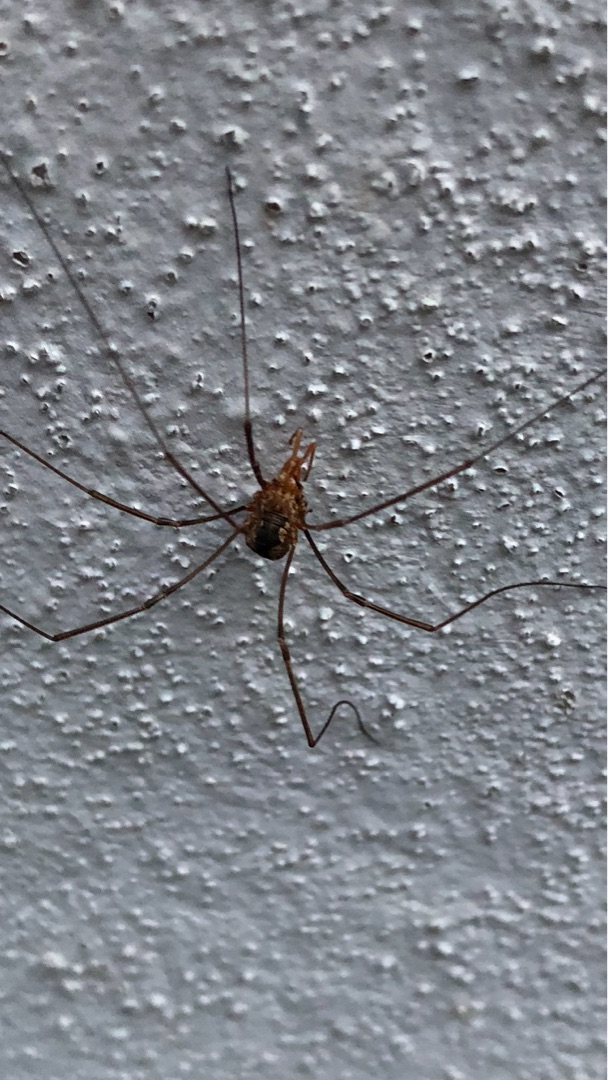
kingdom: Animalia
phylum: Arthropoda
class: Arachnida
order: Opiliones
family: Phalangiidae
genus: Phalangium
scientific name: Phalangium opilio
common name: Hornmejer
